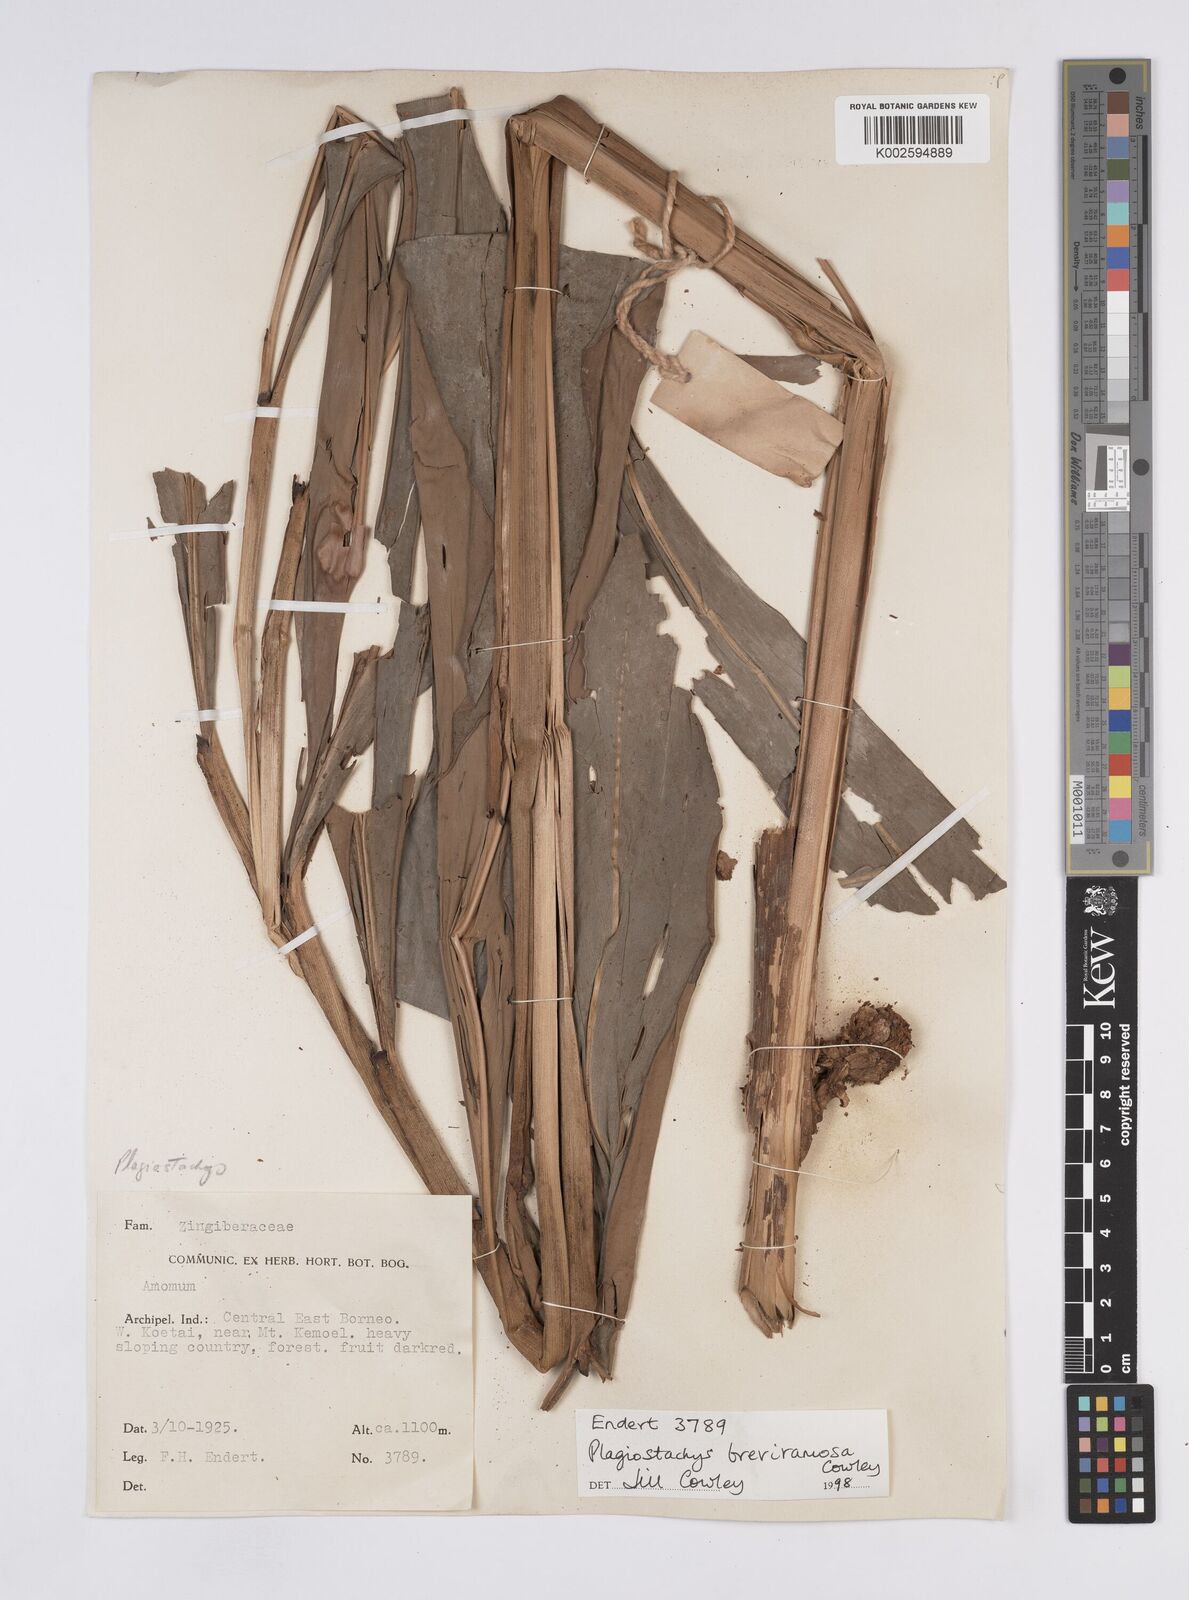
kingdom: Plantae
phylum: Tracheophyta
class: Liliopsida
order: Zingiberales
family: Zingiberaceae
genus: Plagiostachys
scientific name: Plagiostachys breviramosa
